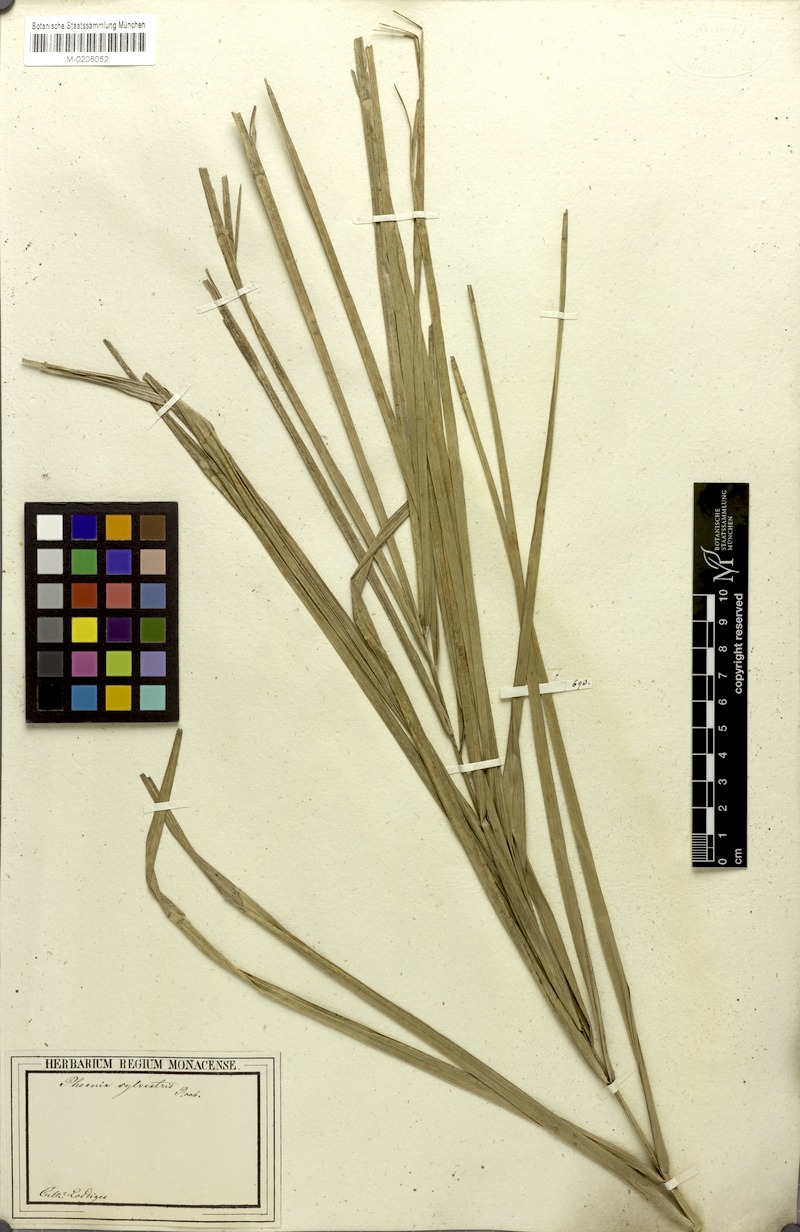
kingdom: Plantae
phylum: Tracheophyta
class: Liliopsida
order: Arecales
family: Arecaceae
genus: Phoenix
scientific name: Phoenix sylvestris
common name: Wild date palm
